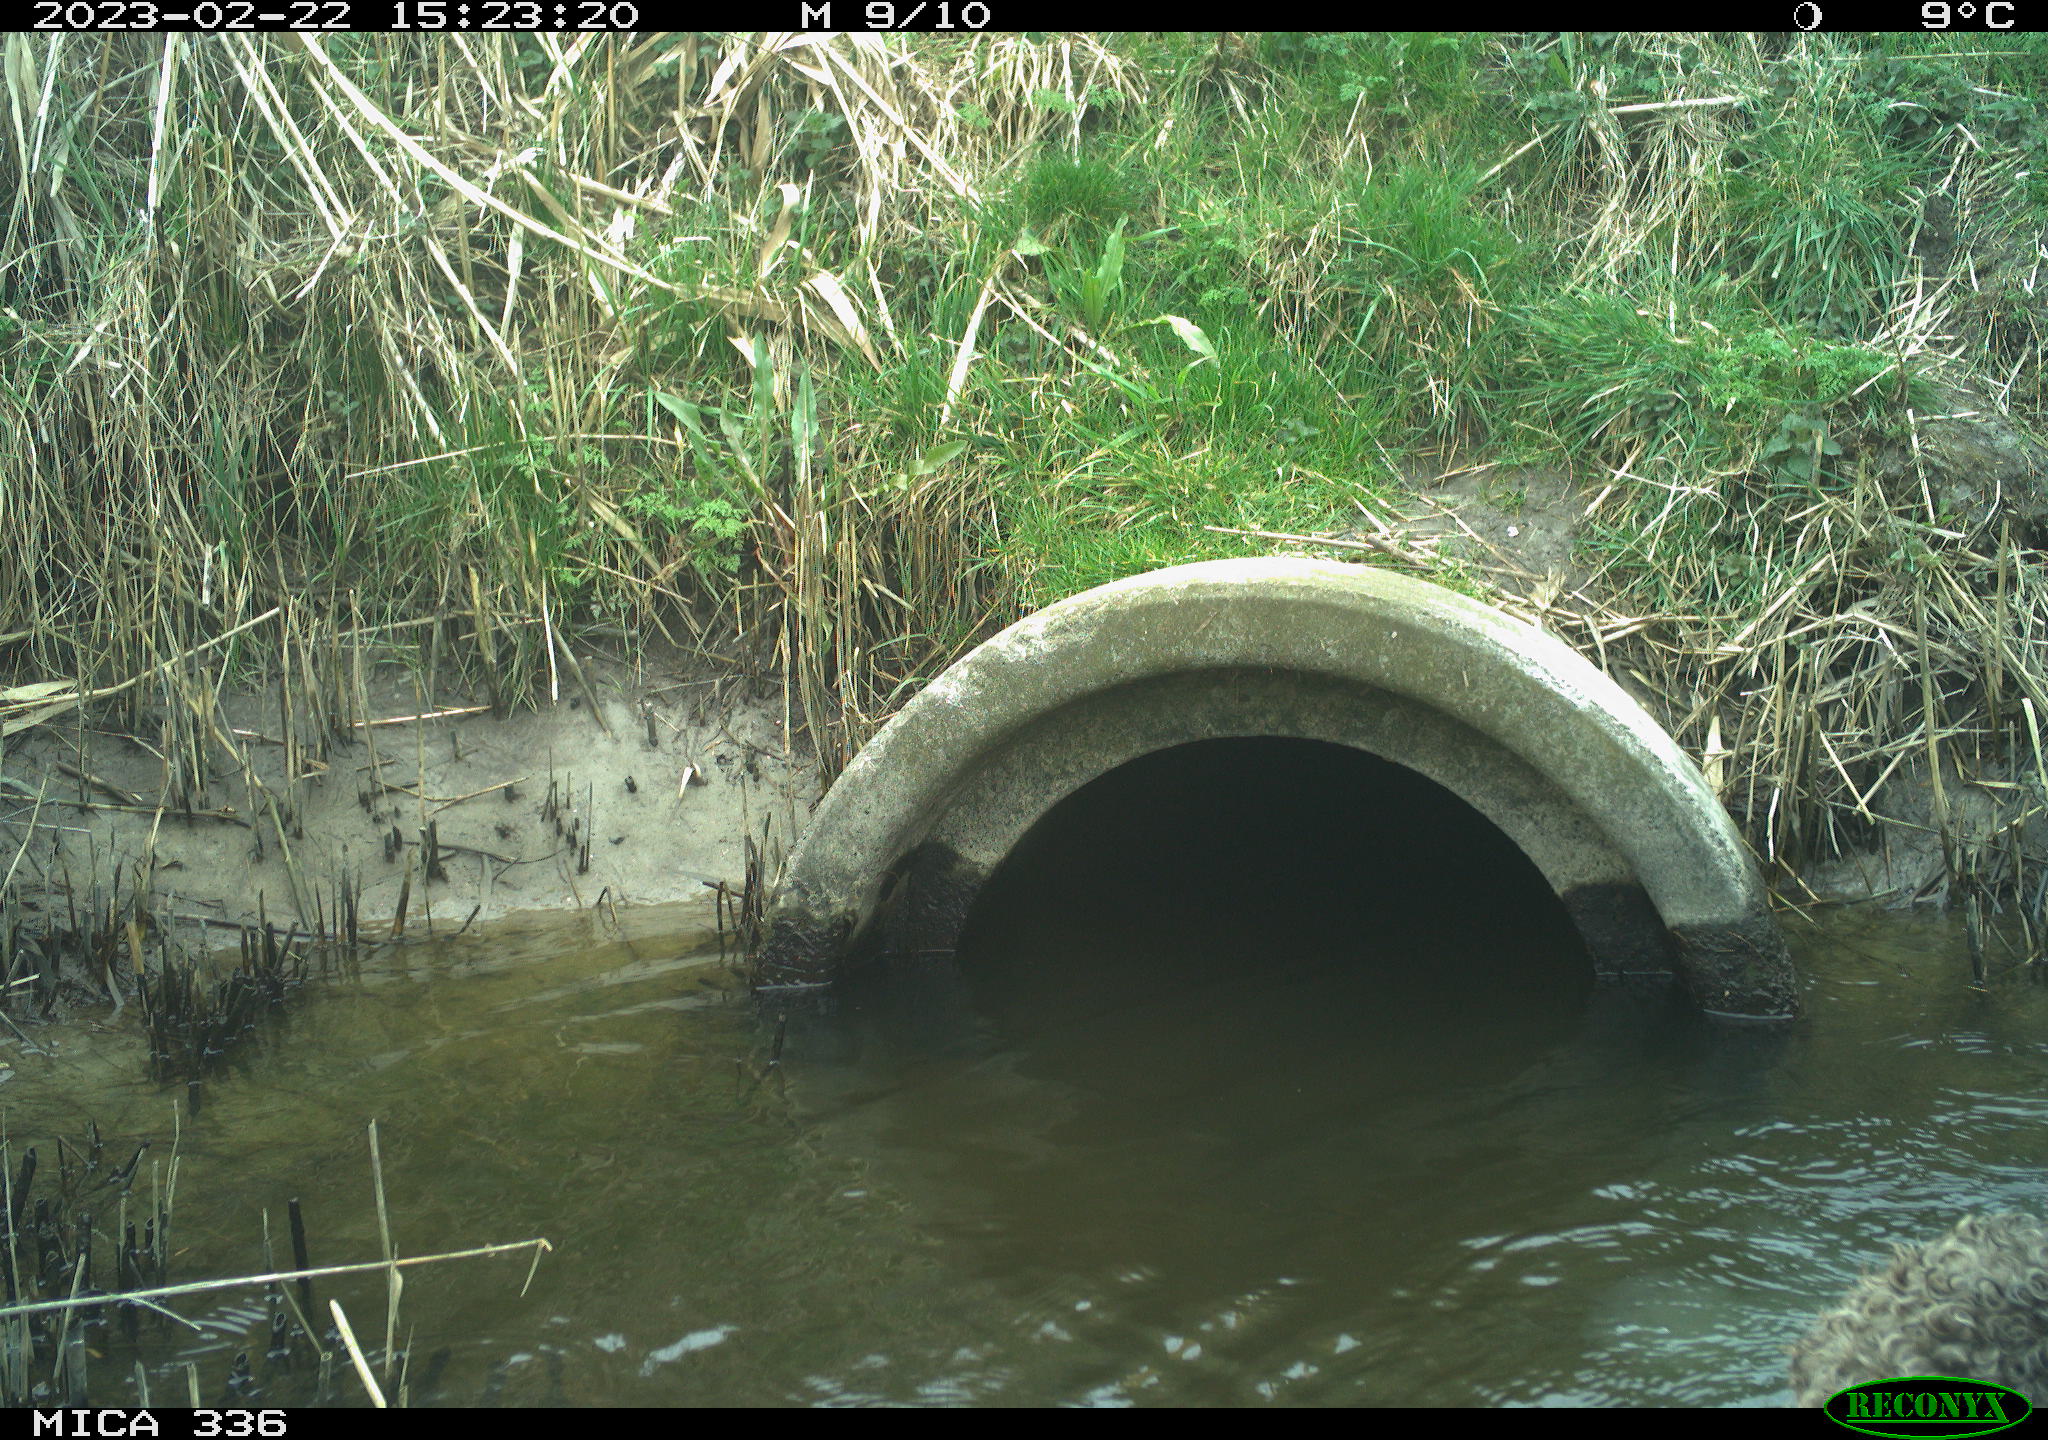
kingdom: Animalia
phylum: Chordata
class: Mammalia
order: Carnivora
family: Canidae
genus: Canis
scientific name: Canis lupus
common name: Gray wolf
